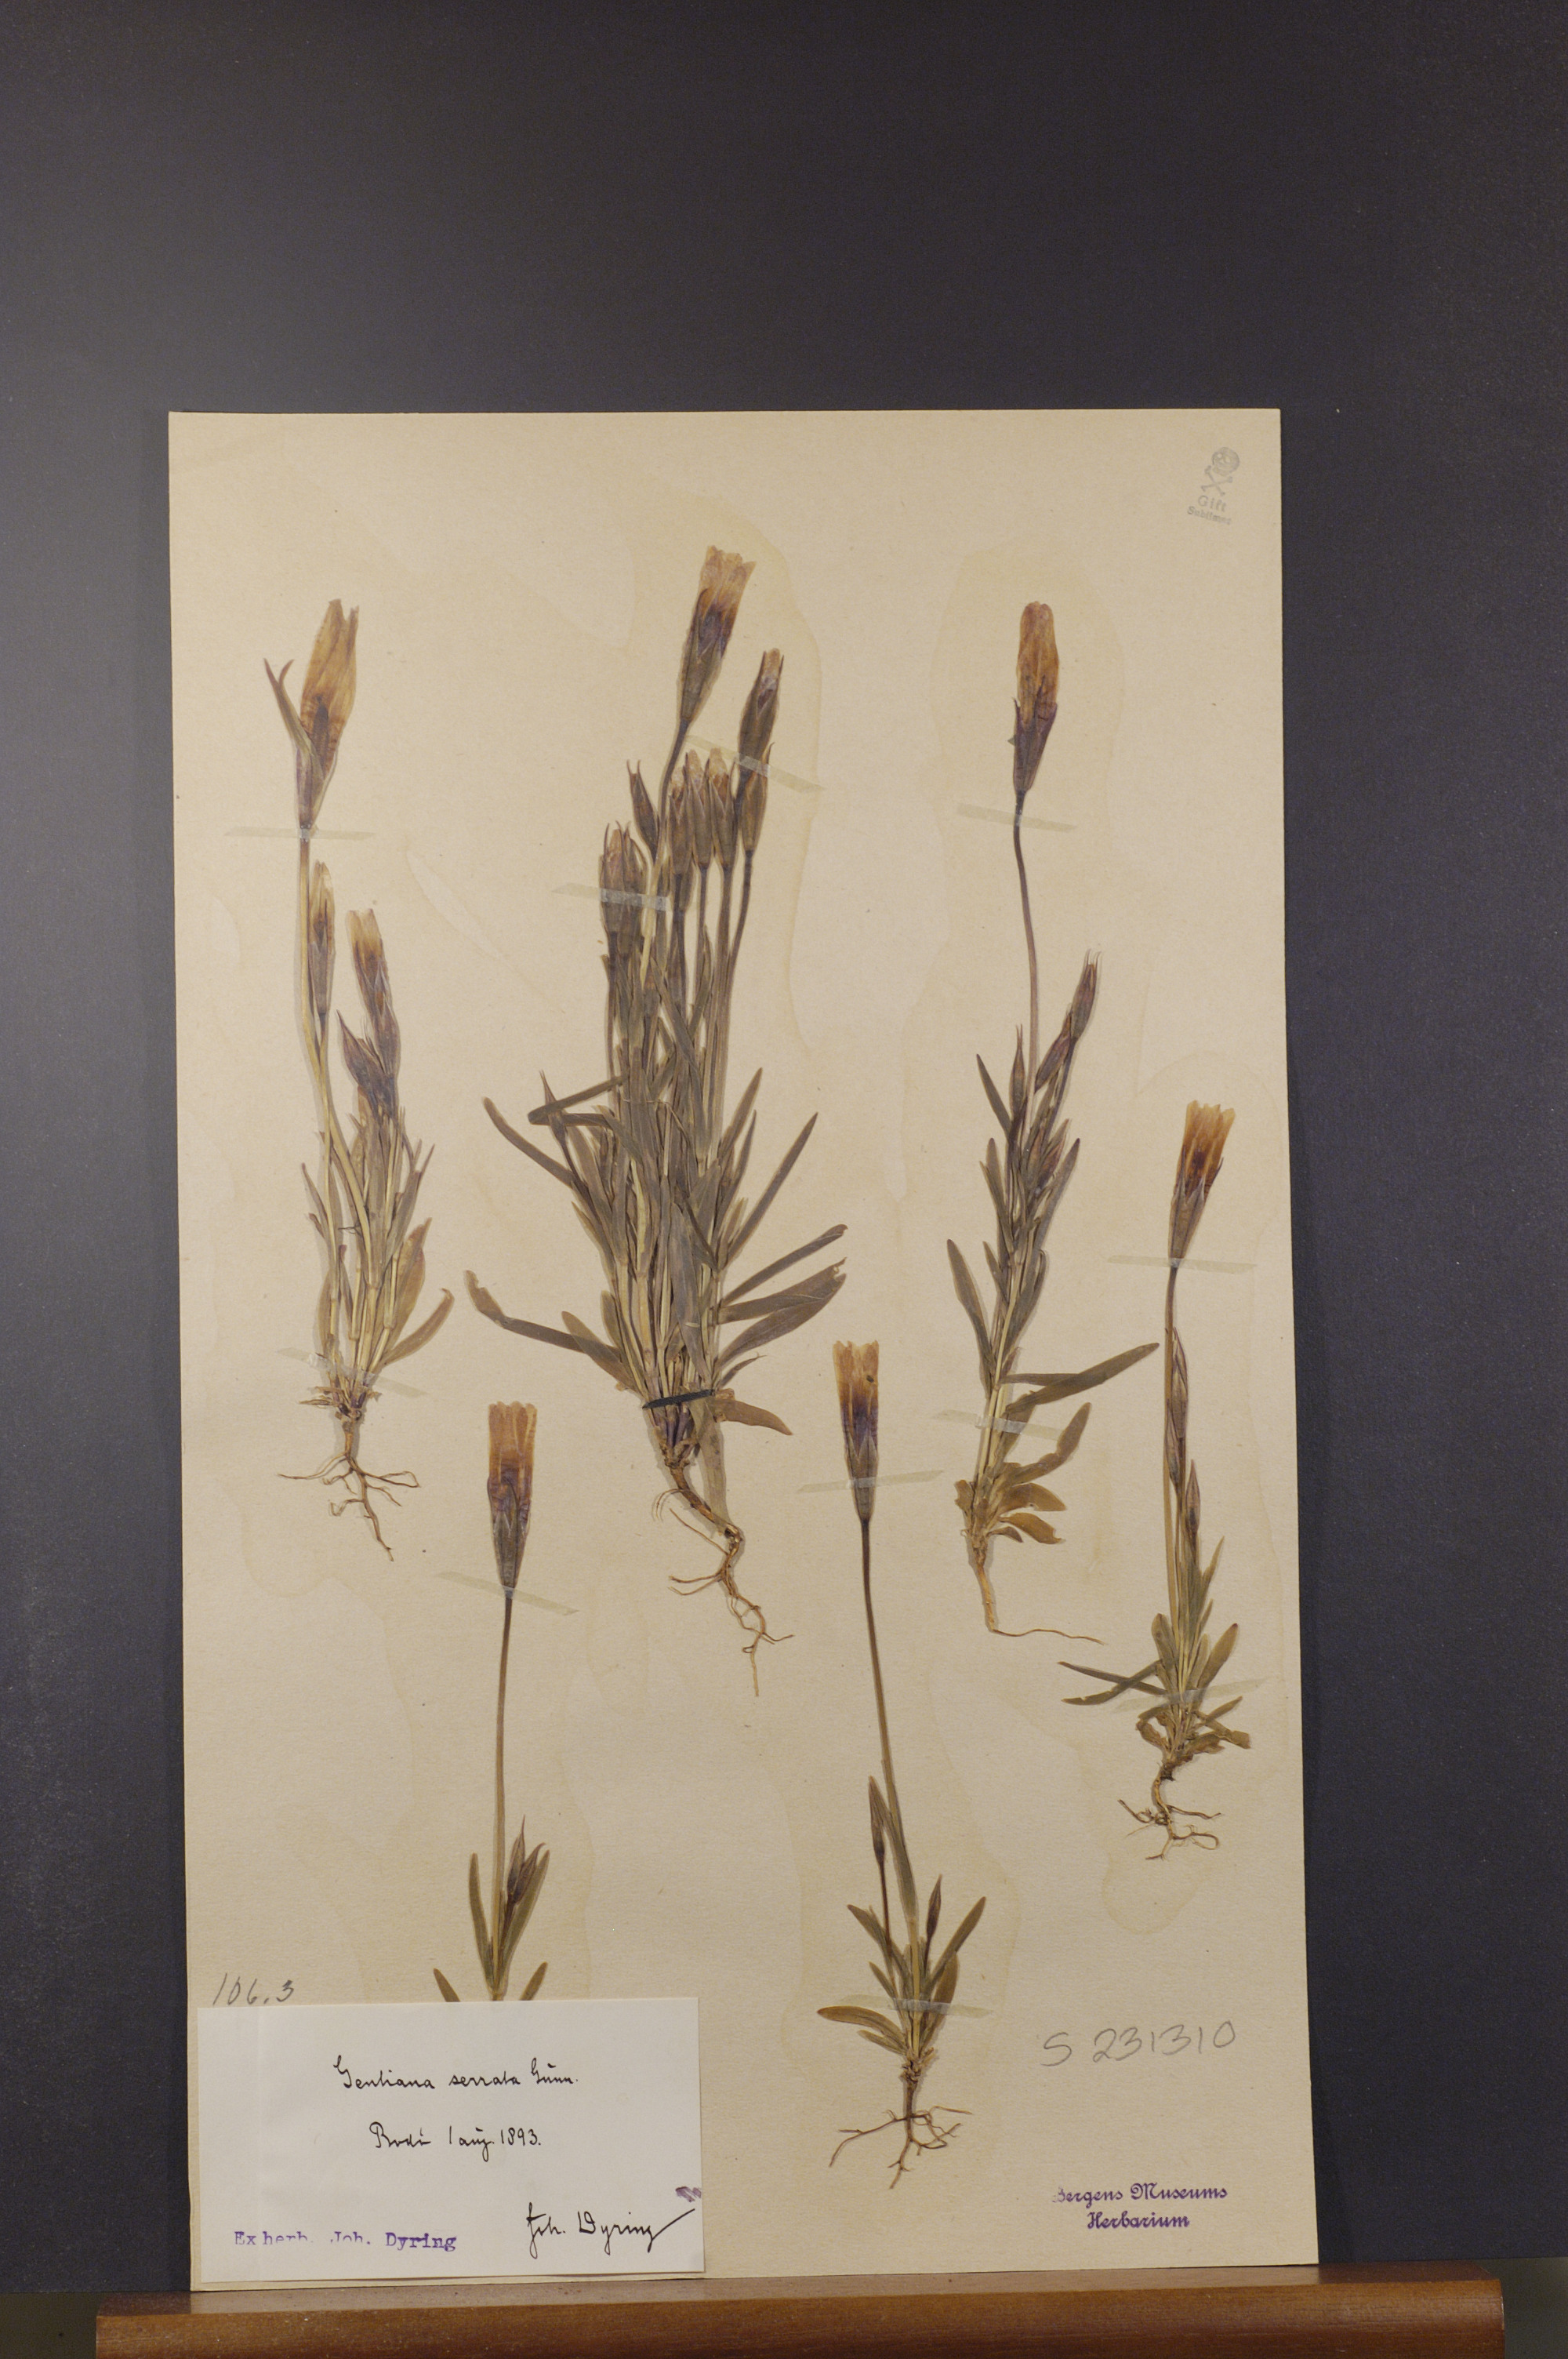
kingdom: Plantae
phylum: Tracheophyta
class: Magnoliopsida
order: Gentianales
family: Gentianaceae
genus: Gentianopsis
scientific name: Gentianopsis detonsa
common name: Fringed-gentian
